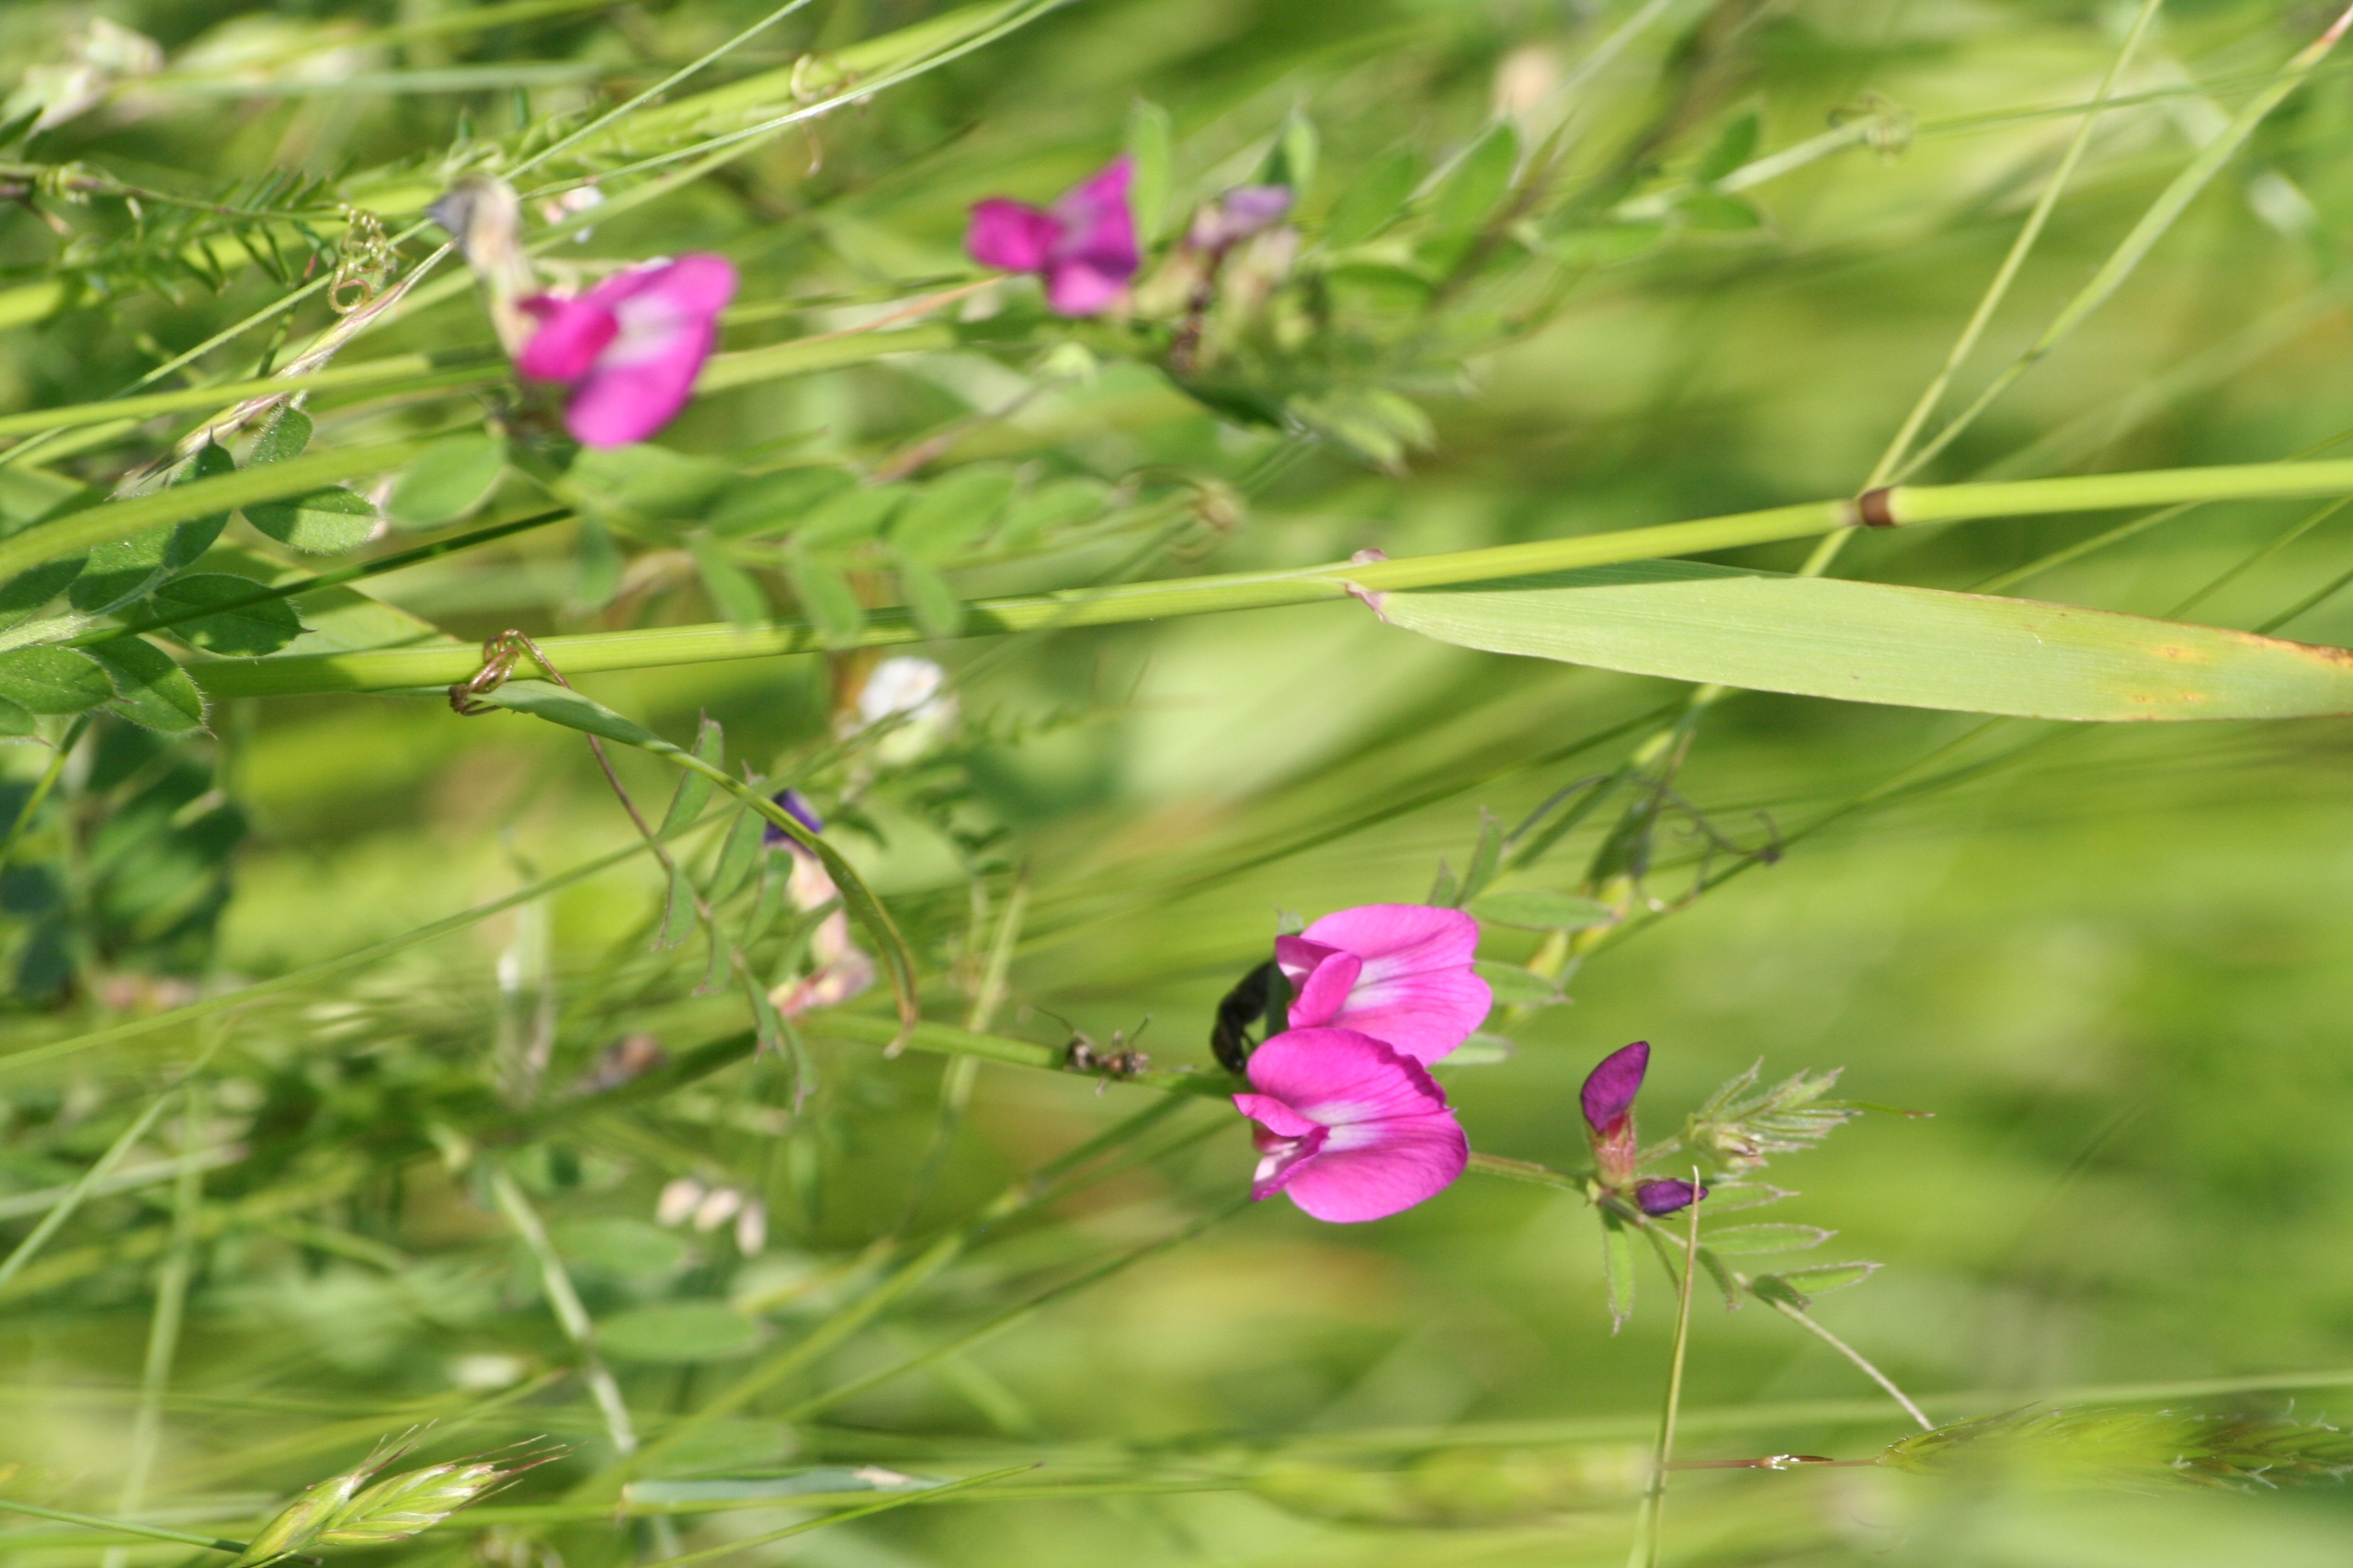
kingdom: Plantae
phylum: Tracheophyta
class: Magnoliopsida
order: Fabales
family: Fabaceae
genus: Vicia
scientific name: Vicia sativa
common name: Smalbladet vikke
